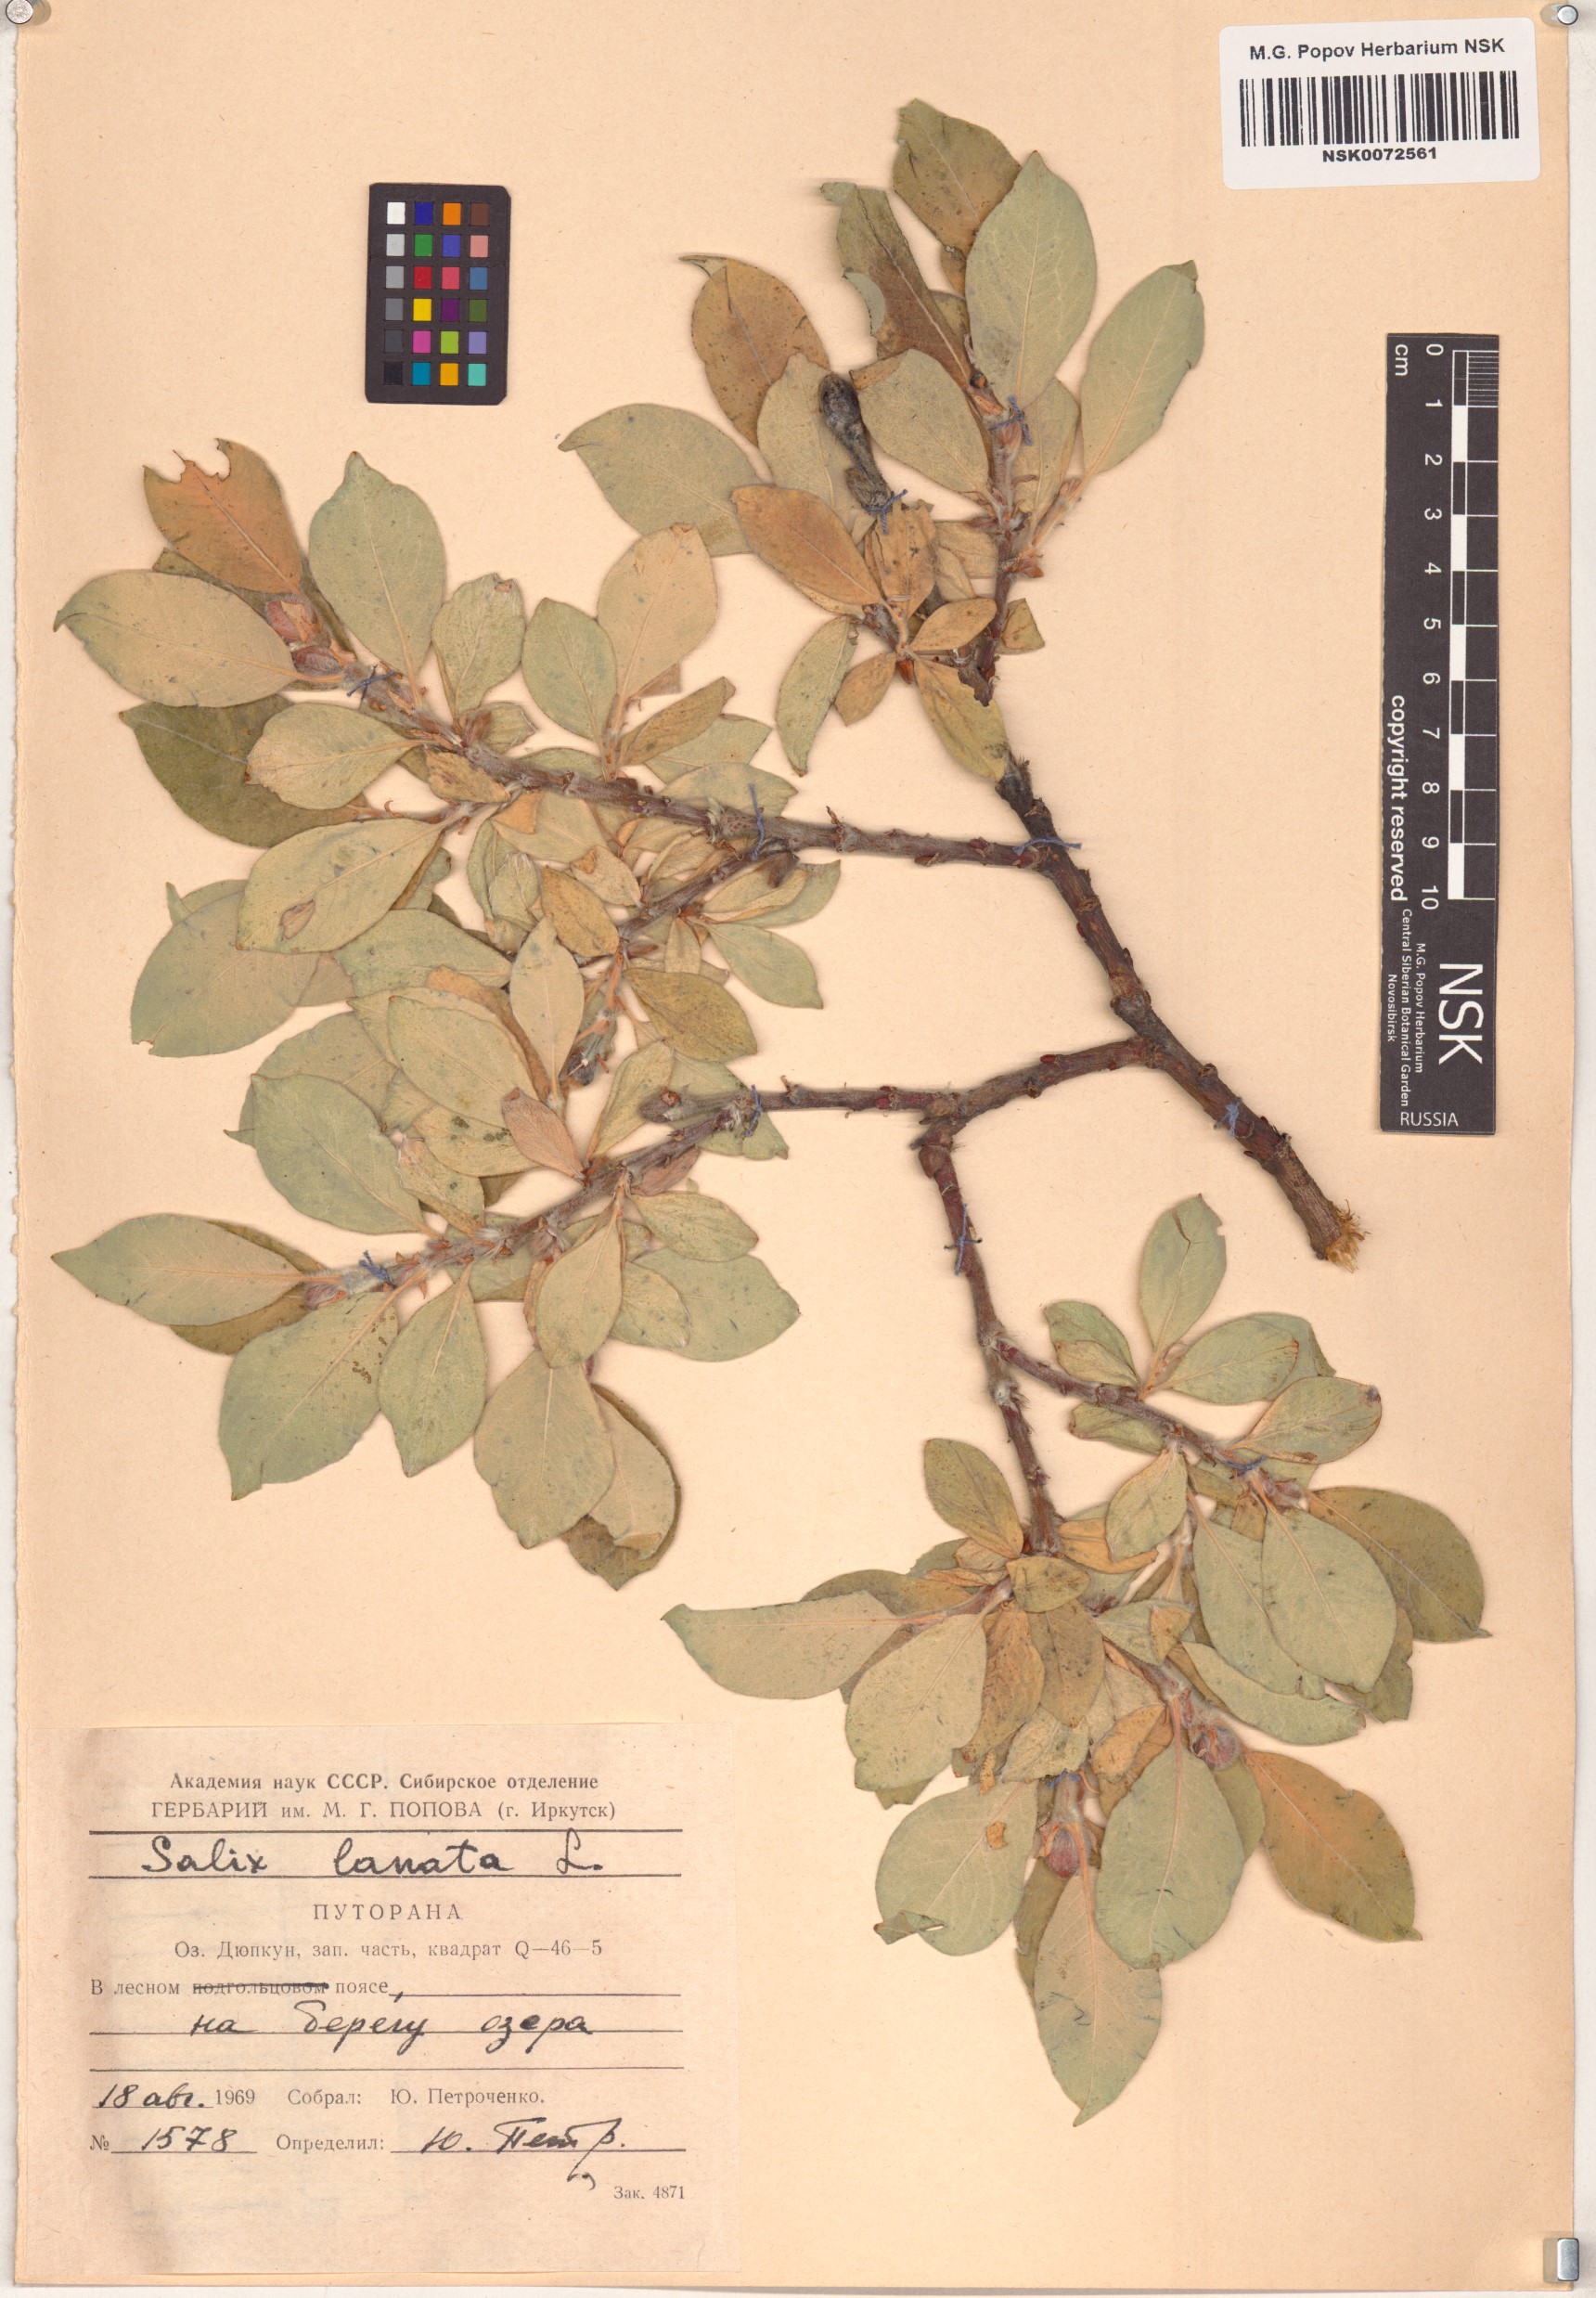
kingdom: Plantae
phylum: Tracheophyta
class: Magnoliopsida
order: Malpighiales
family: Salicaceae
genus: Salix
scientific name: Salix lanata
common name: Woolly willow
